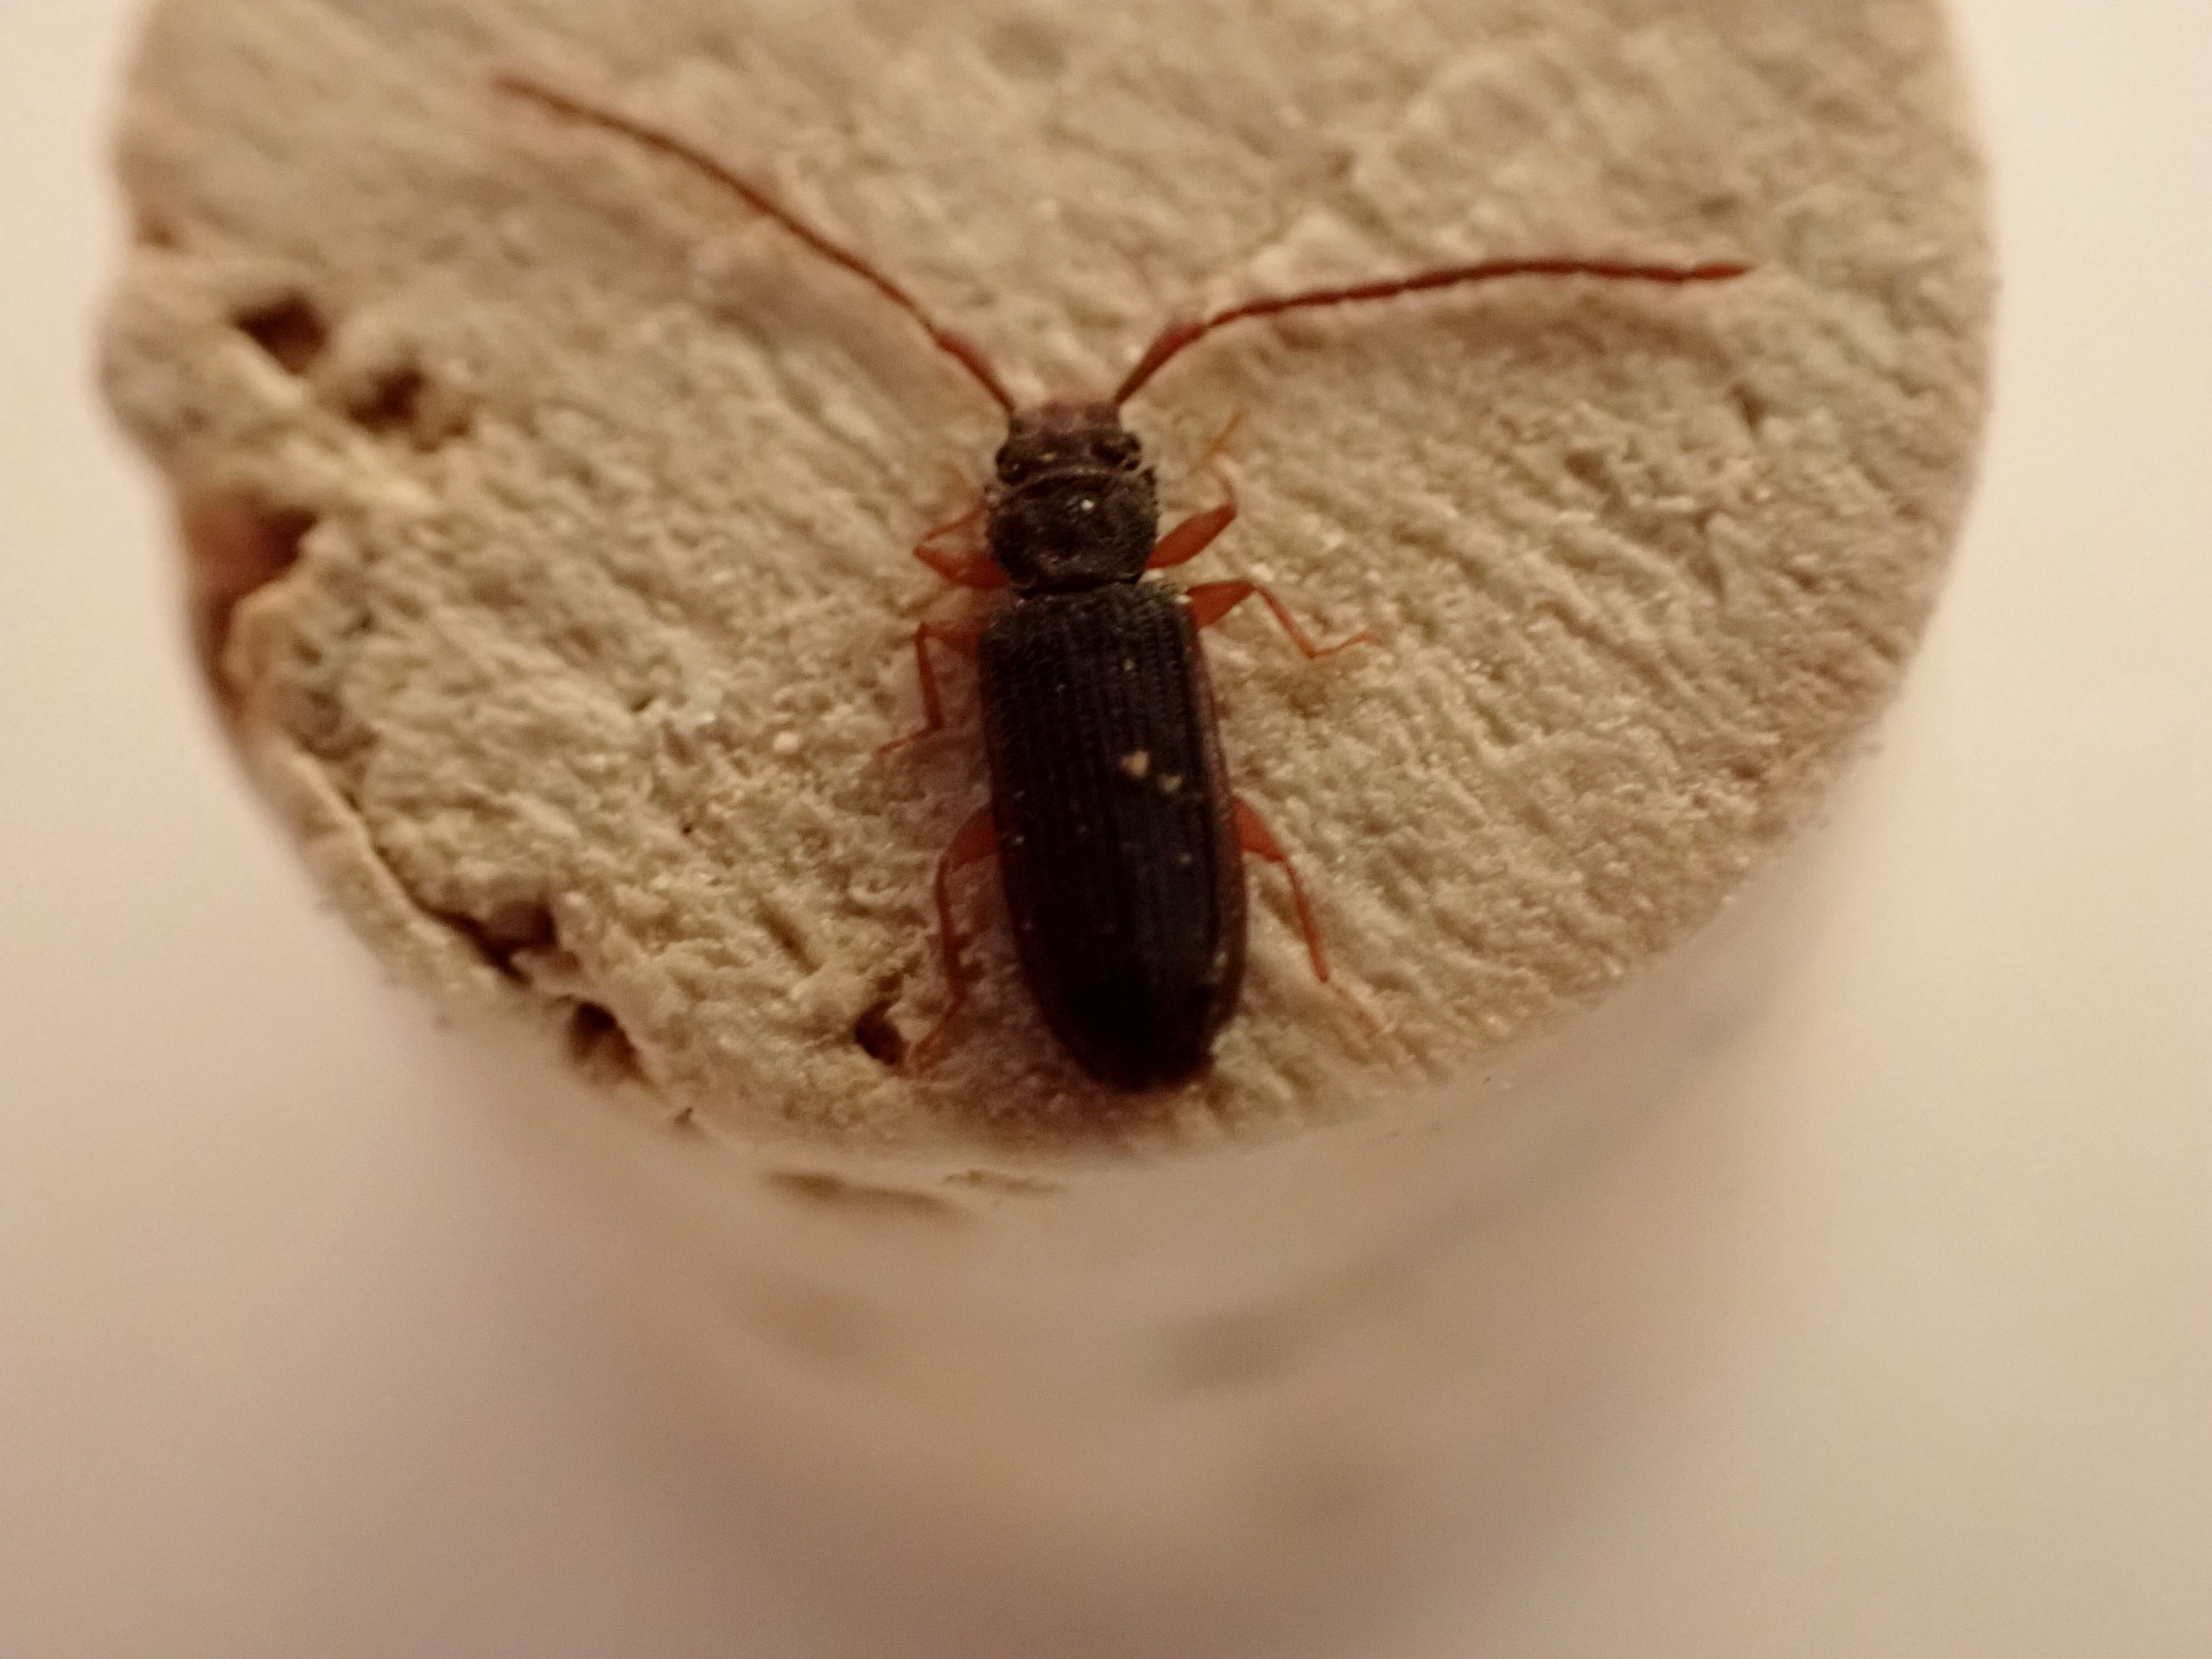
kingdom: Animalia
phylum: Arthropoda
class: Insecta
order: Coleoptera
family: Silvanidae
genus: Uleiota
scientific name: Uleiota planatus
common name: Langhornet fladbille
